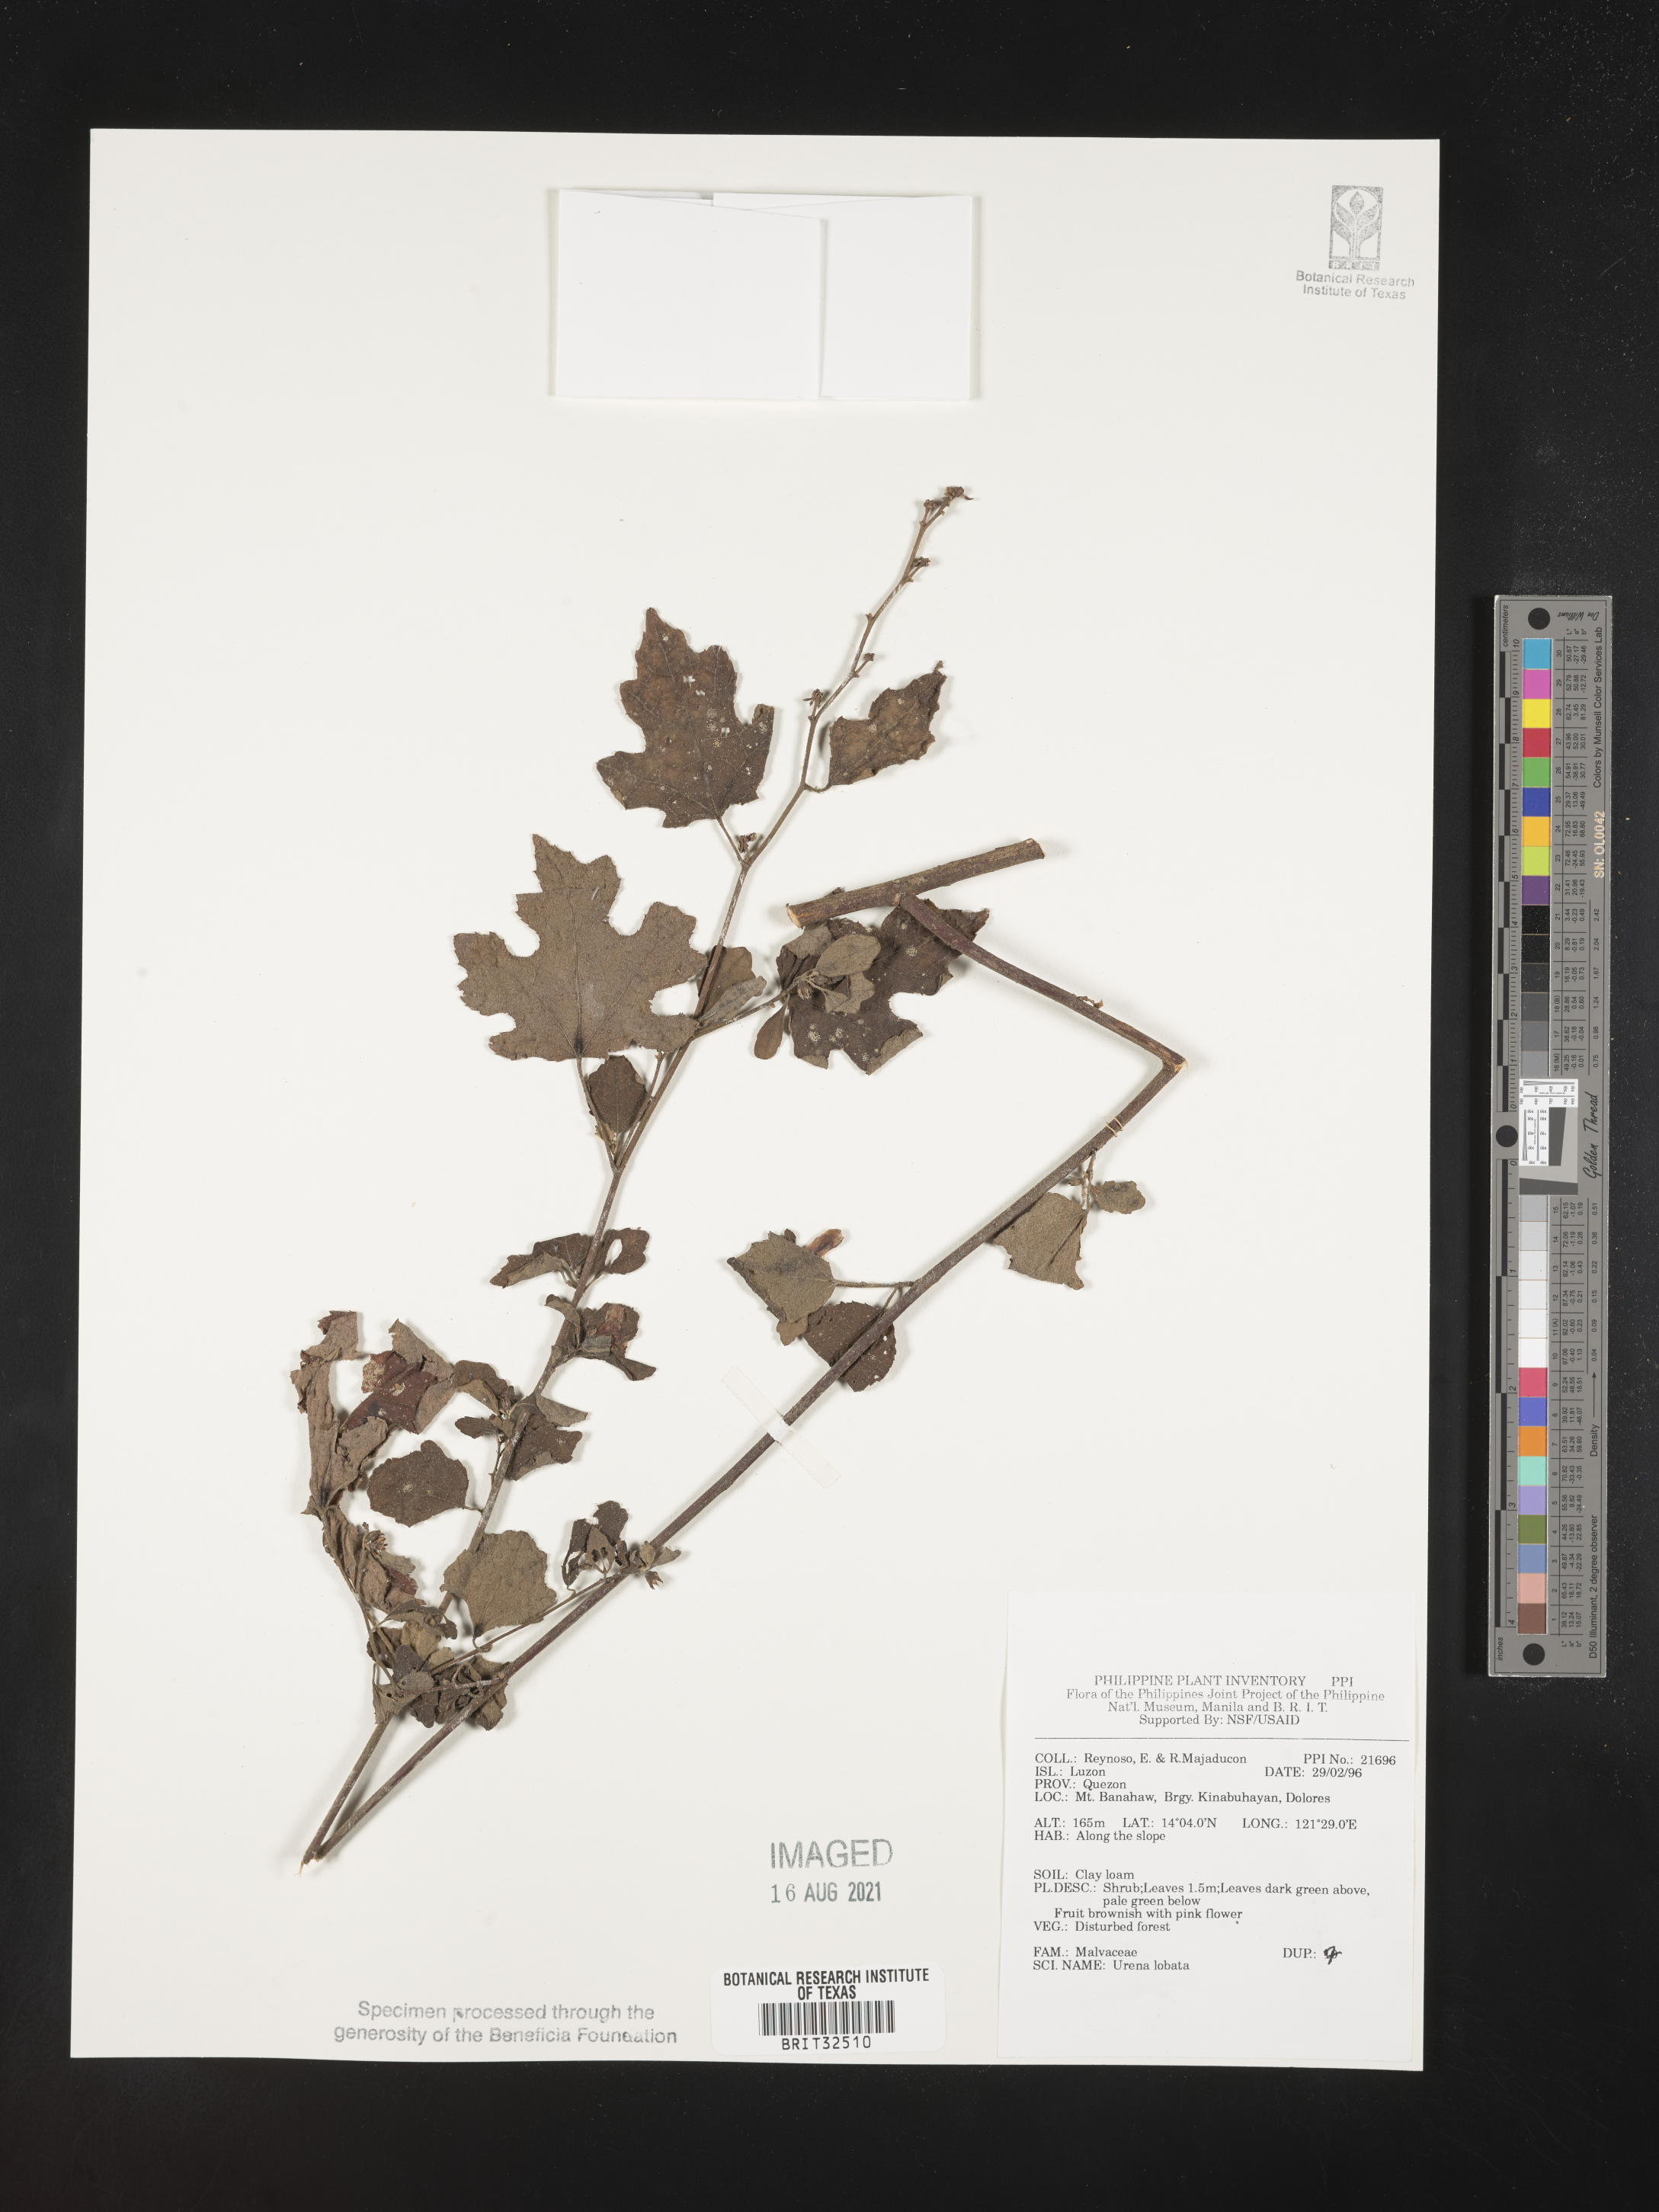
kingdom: Plantae
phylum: Tracheophyta
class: Magnoliopsida
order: Malvales
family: Malvaceae
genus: Urena
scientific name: Urena lobata
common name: Caesarweed
